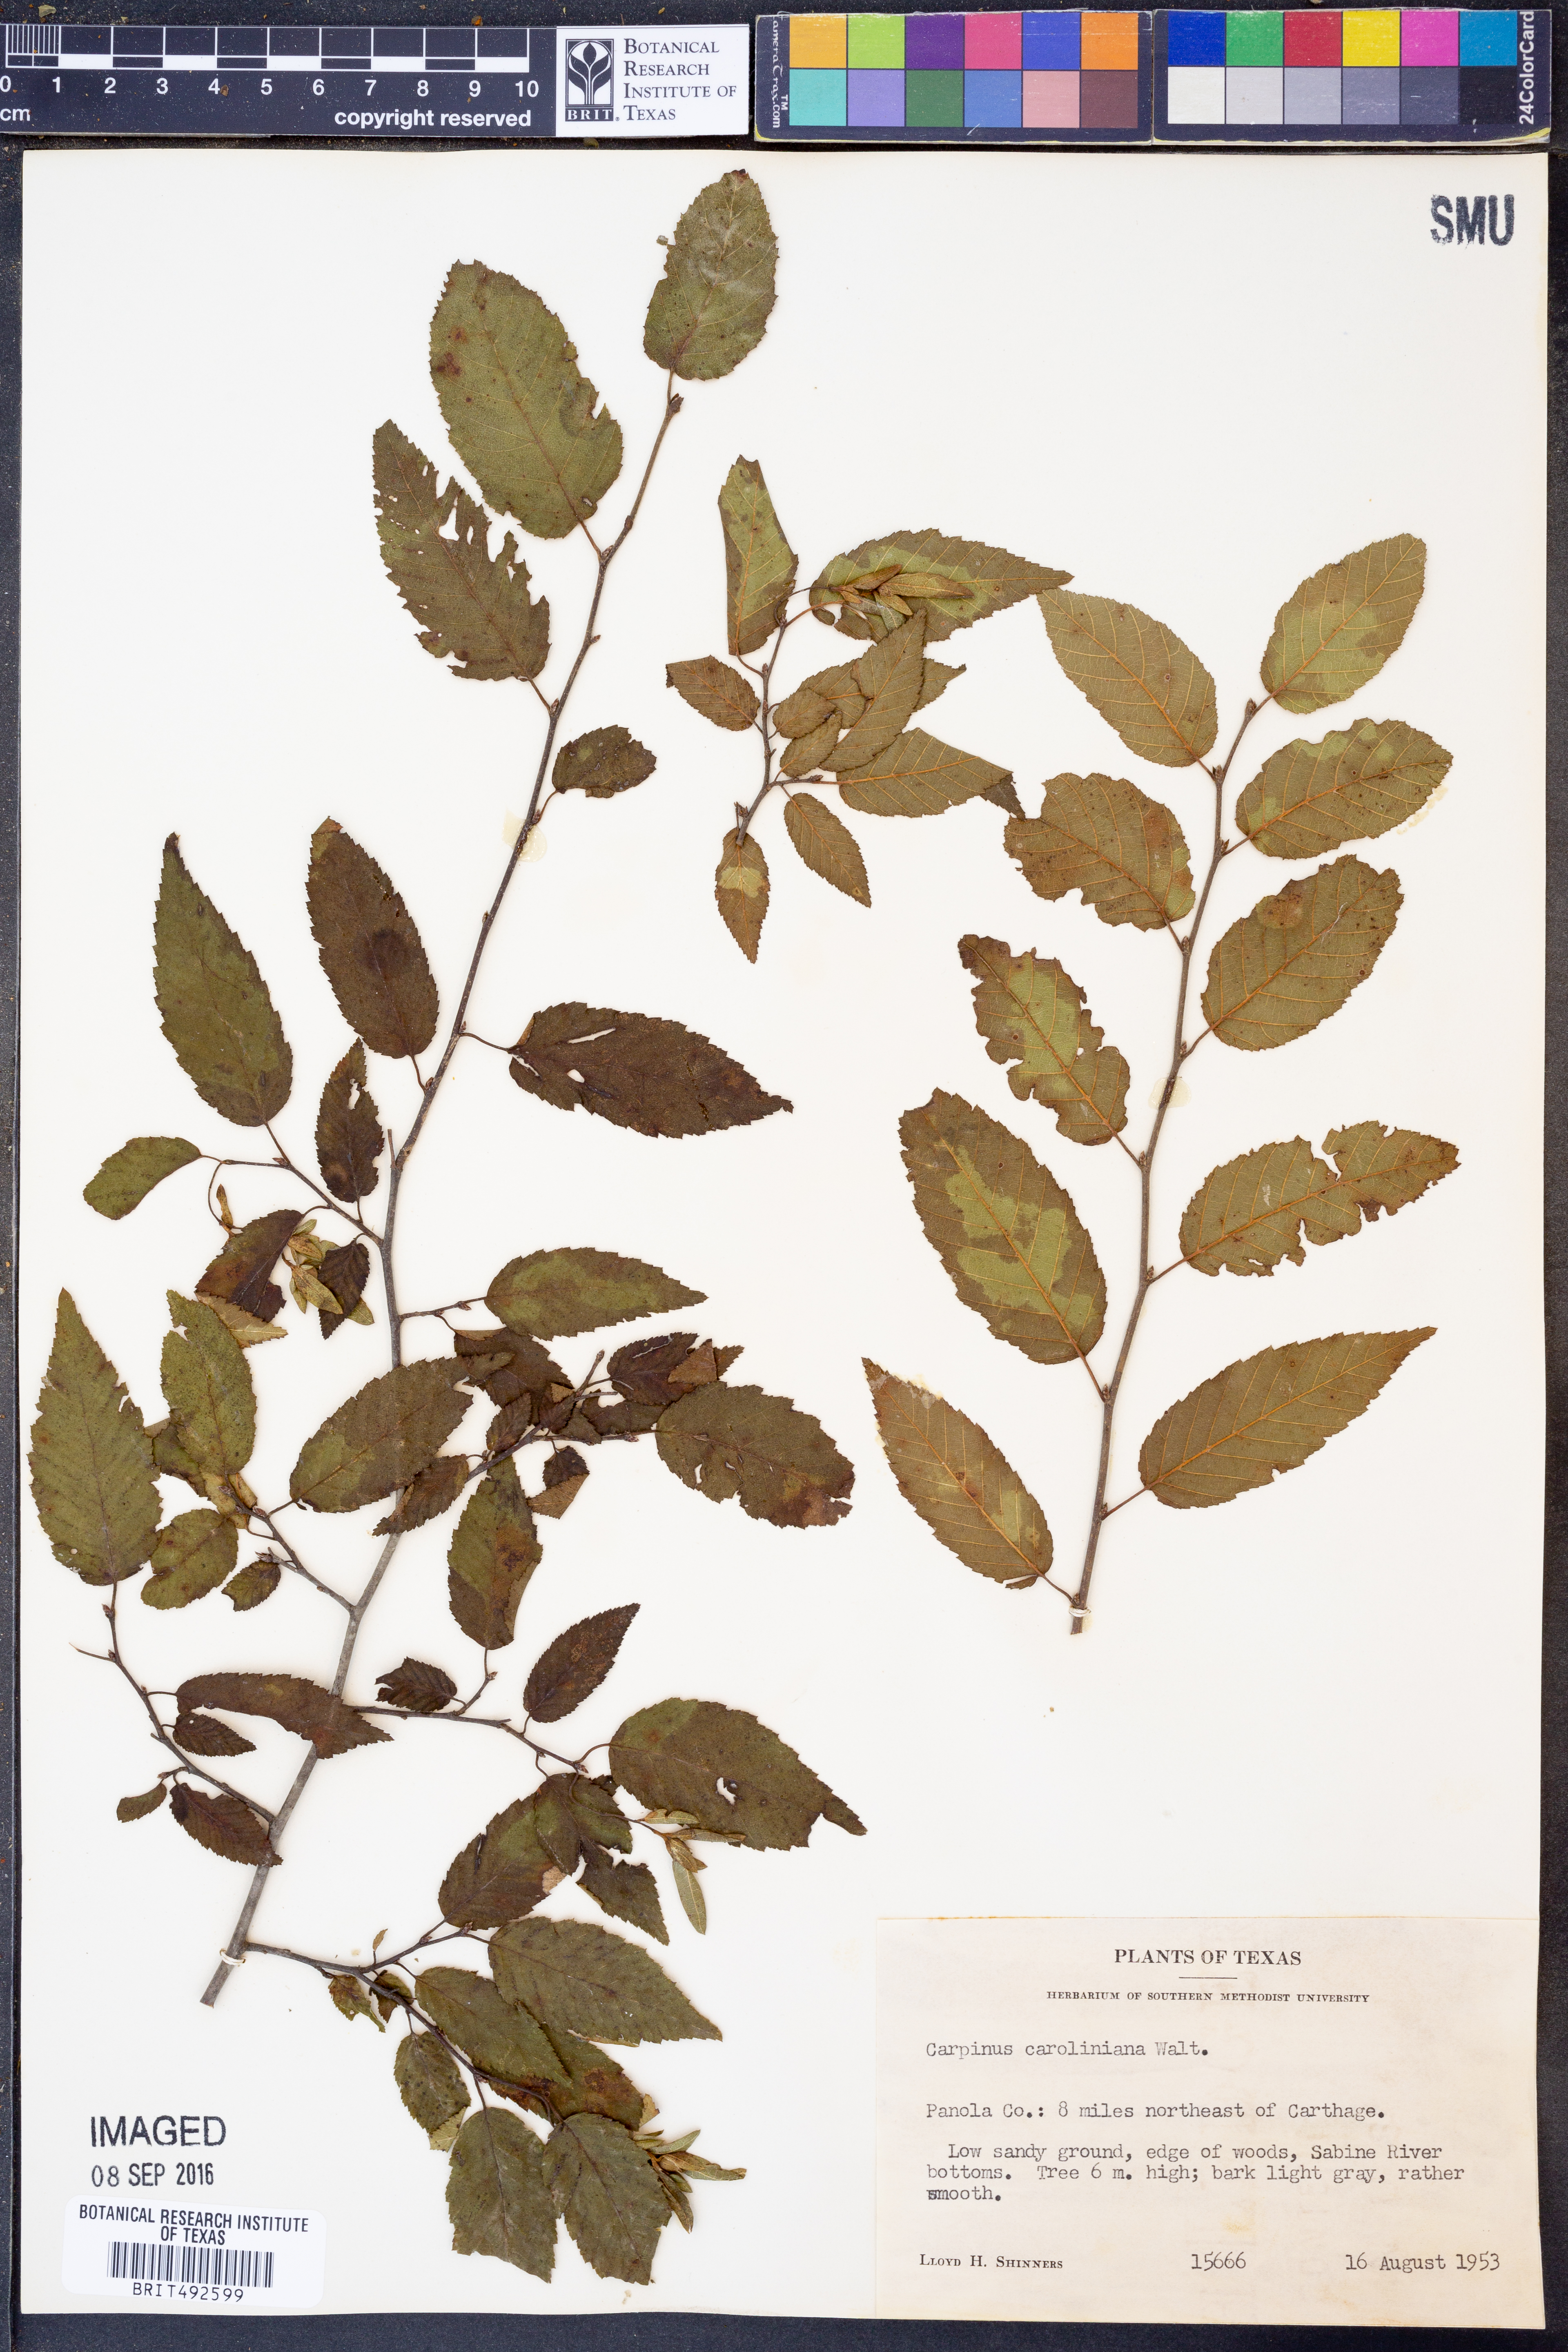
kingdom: Plantae
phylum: Tracheophyta
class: Magnoliopsida
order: Fagales
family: Betulaceae
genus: Carpinus
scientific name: Carpinus caroliniana
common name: American hornbeam
